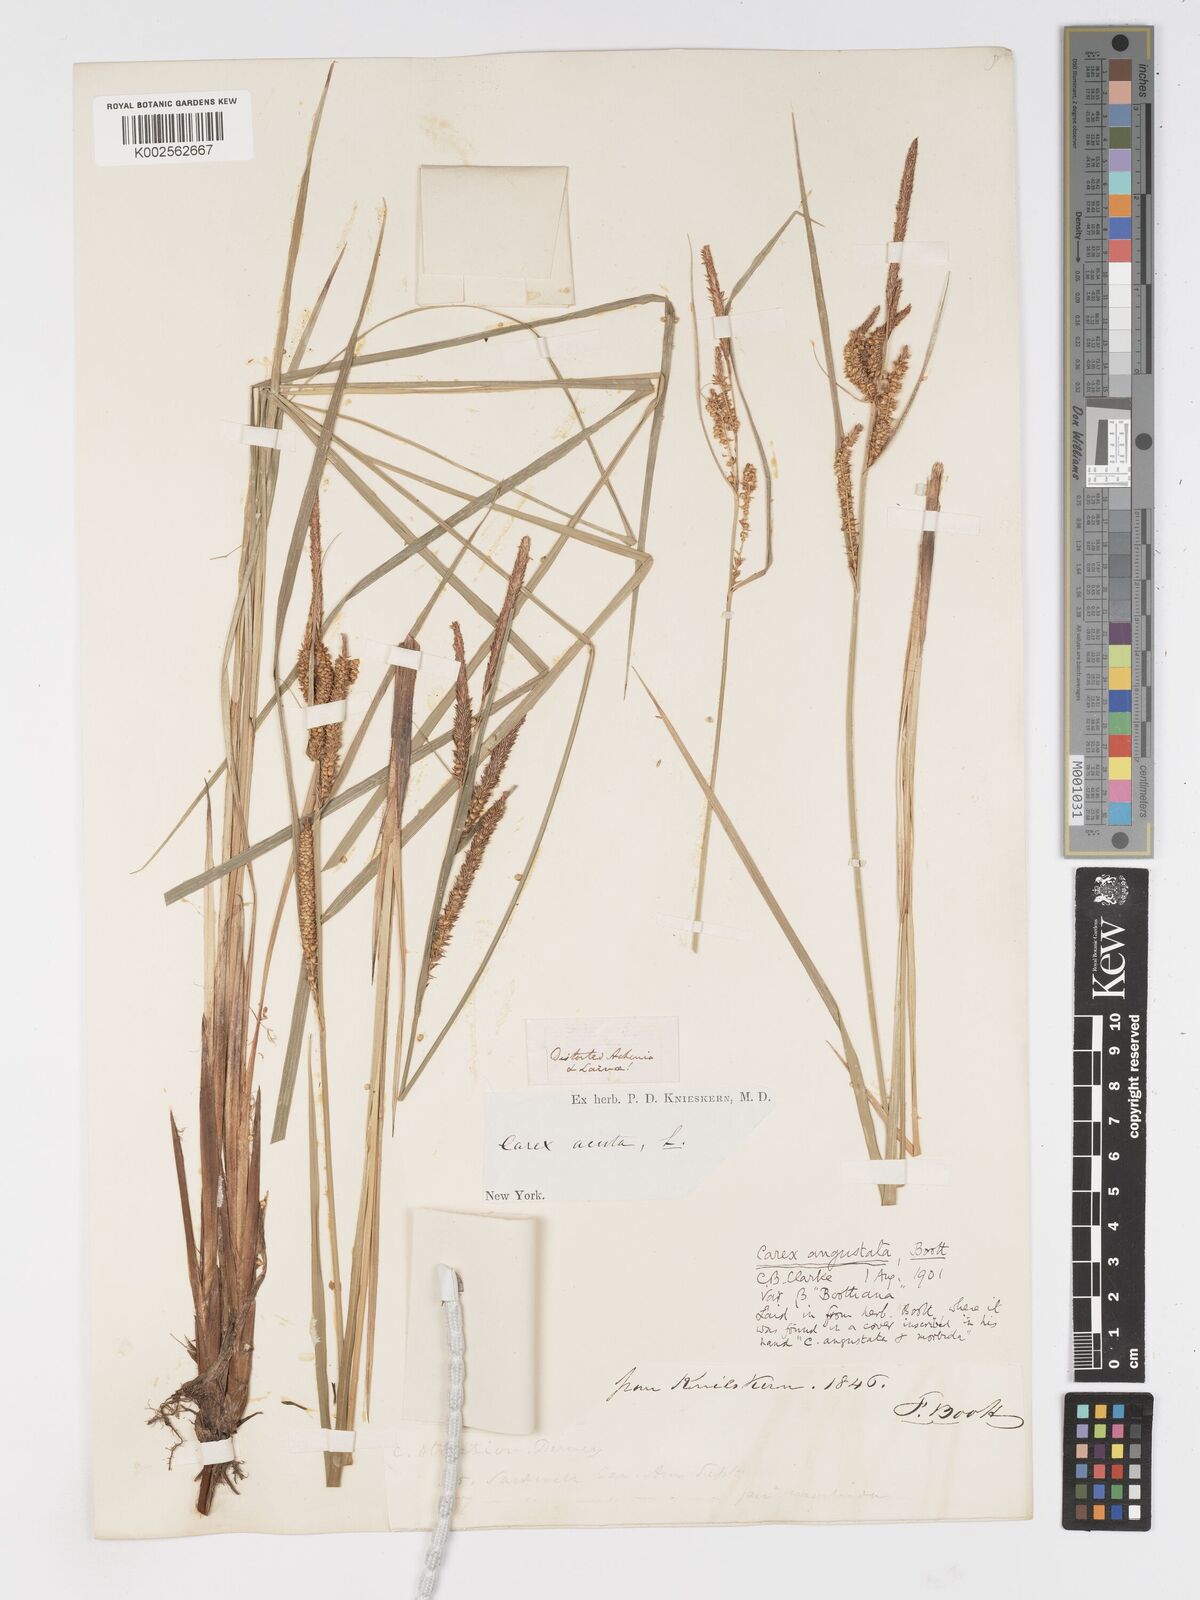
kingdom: Plantae
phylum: Tracheophyta
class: Liliopsida
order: Poales
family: Cyperaceae
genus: Carex
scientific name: Carex stricta
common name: Hummock sedge
